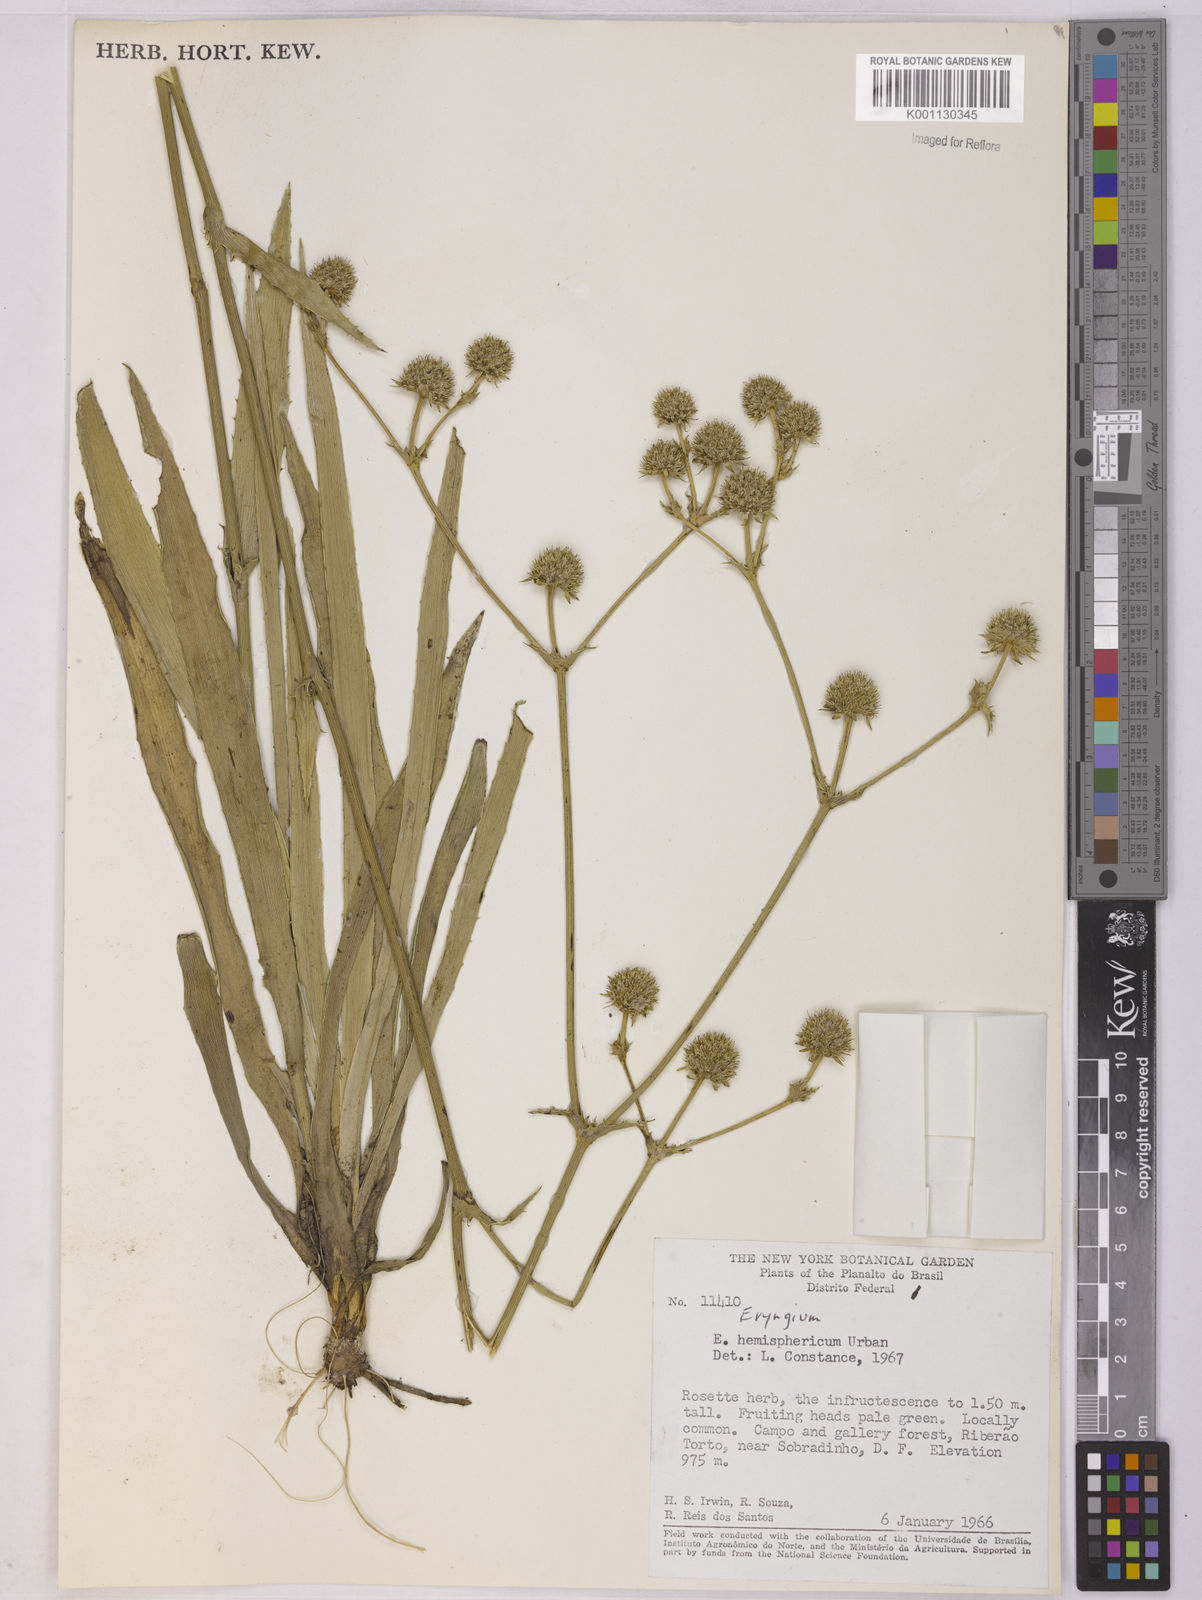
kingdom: Plantae
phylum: Tracheophyta
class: Magnoliopsida
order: Apiales
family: Apiaceae
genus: Eryngium
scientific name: Eryngium hemisphaericum
